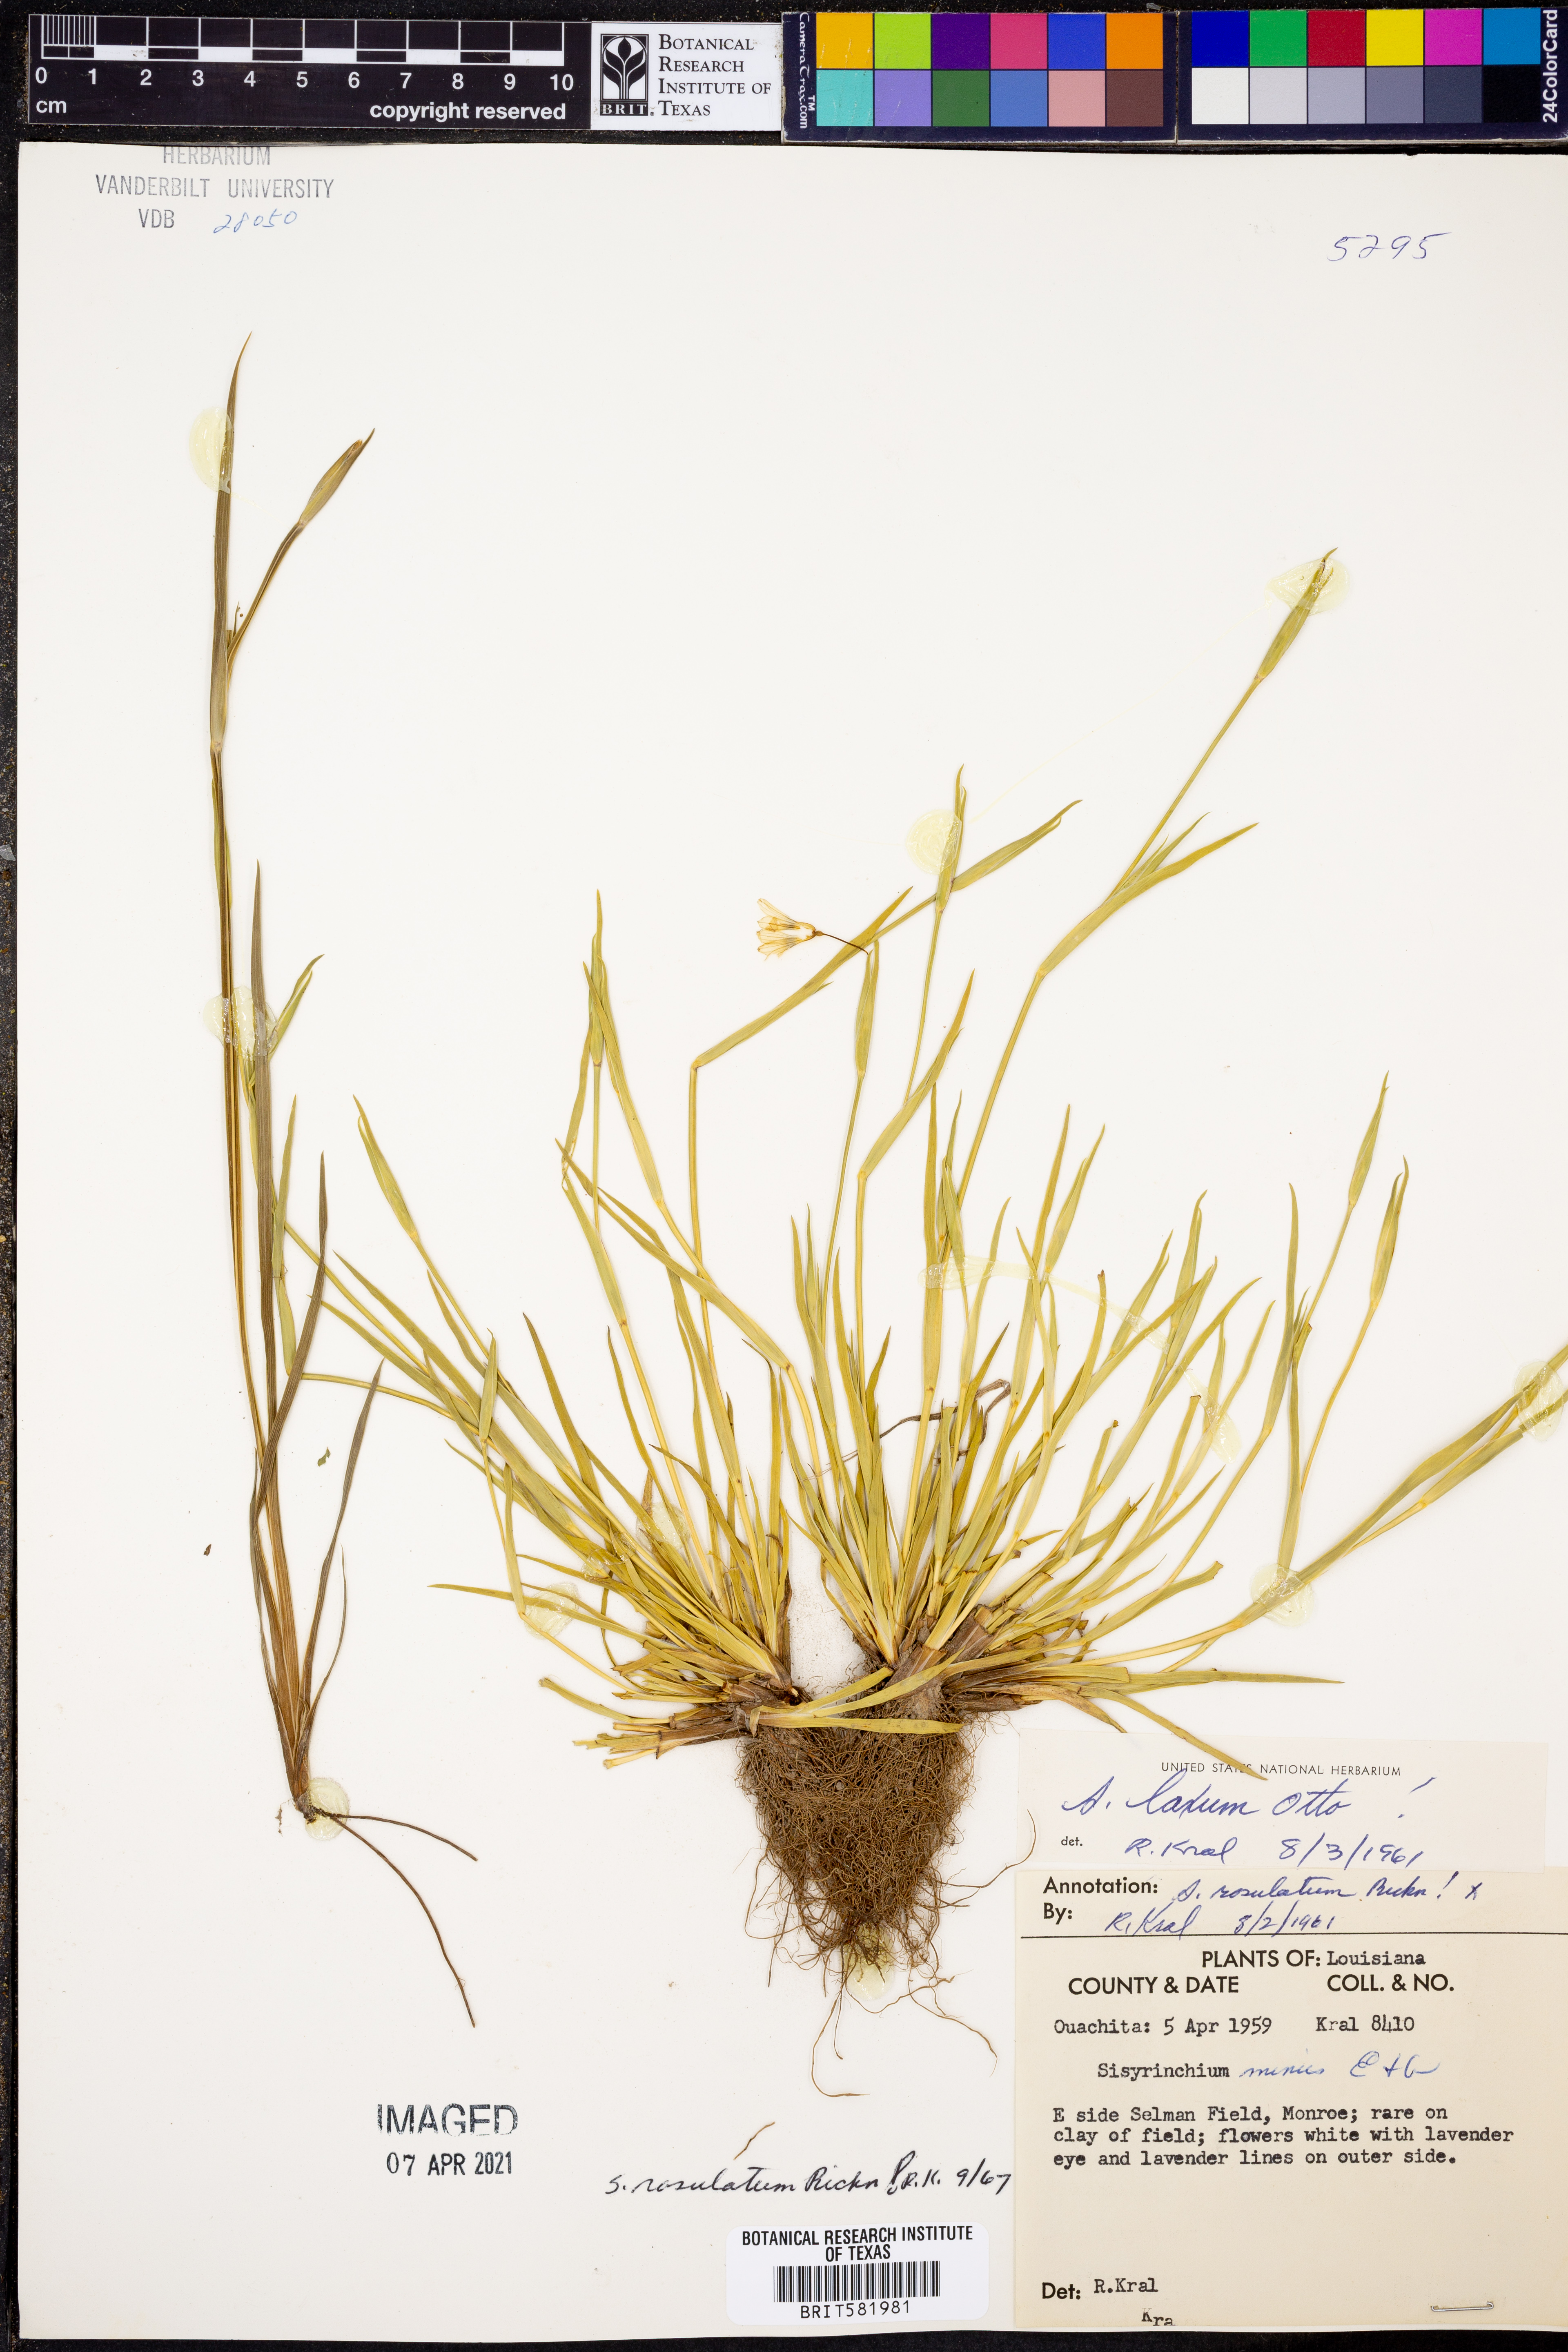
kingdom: Plantae
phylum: Tracheophyta
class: Liliopsida
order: Asparagales
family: Iridaceae
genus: Sisyrinchium
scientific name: Sisyrinchium rosulatum
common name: Annual blue-eyed grass
